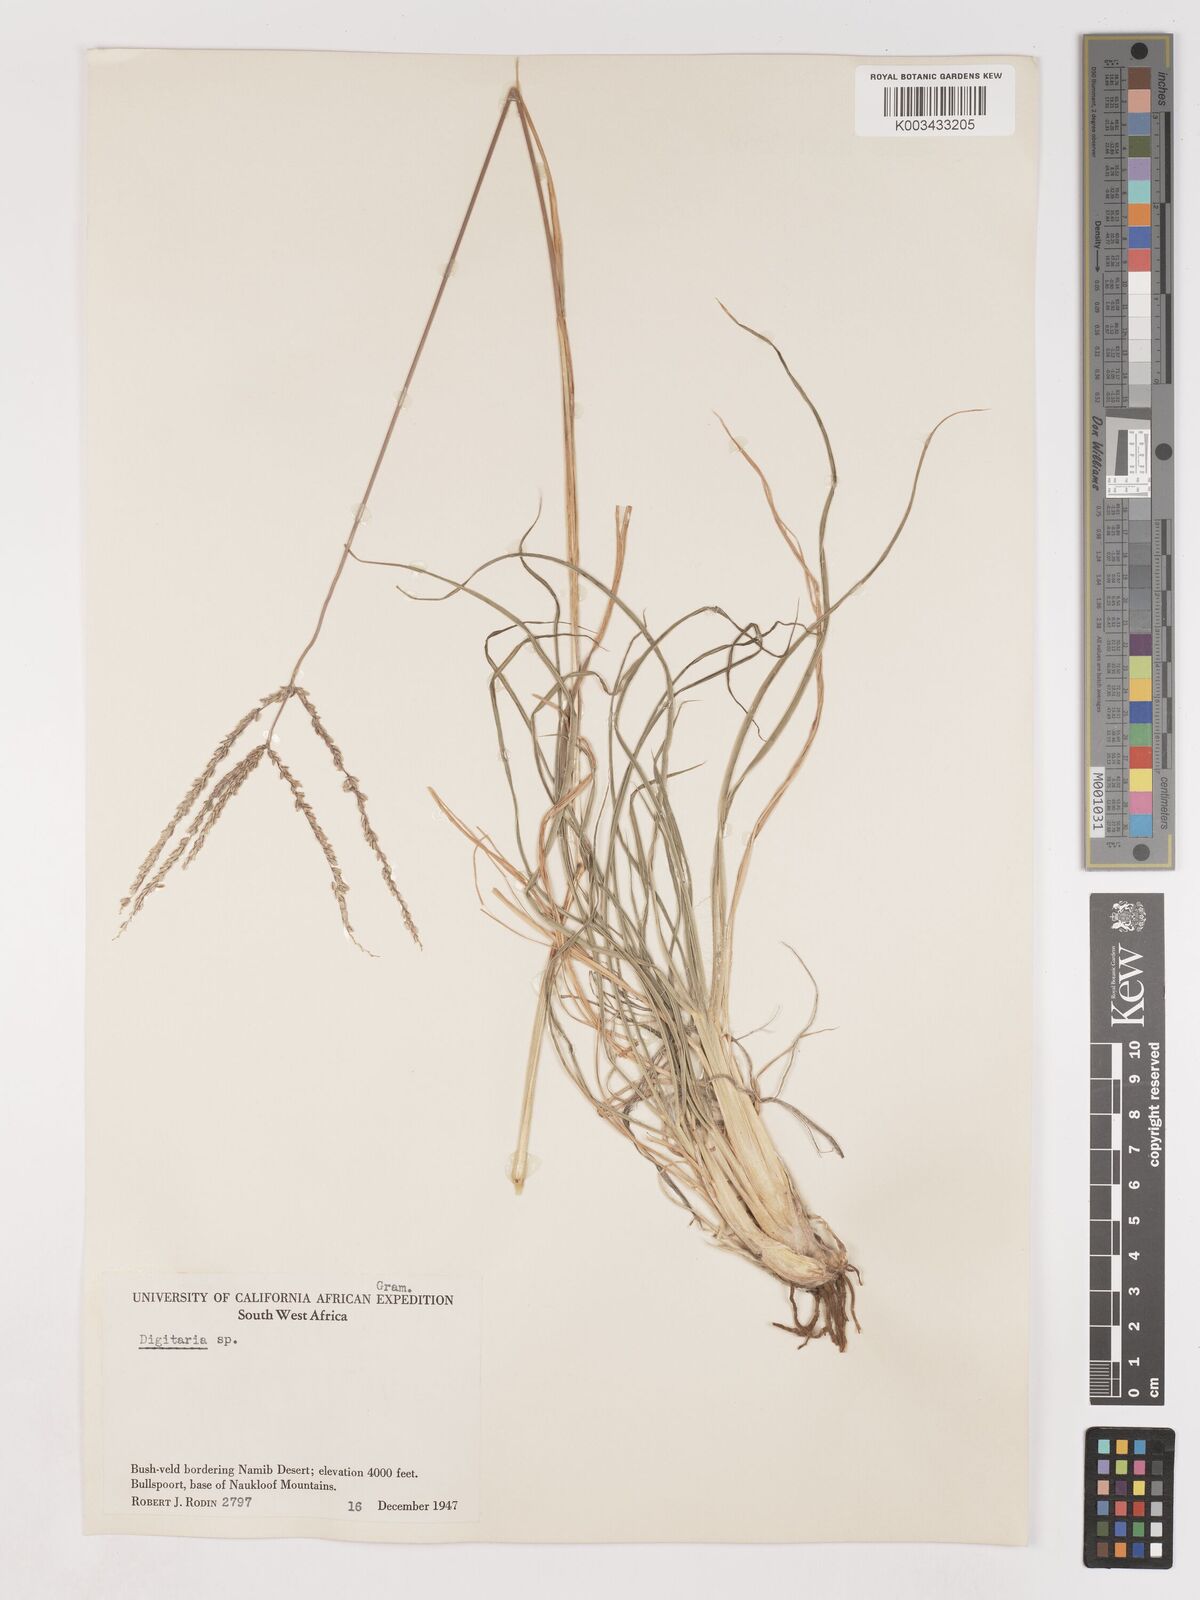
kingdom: Plantae
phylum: Tracheophyta
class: Liliopsida
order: Poales
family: Poaceae
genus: Digitaria
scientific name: Digitaria eriantha
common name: Digitgrass
